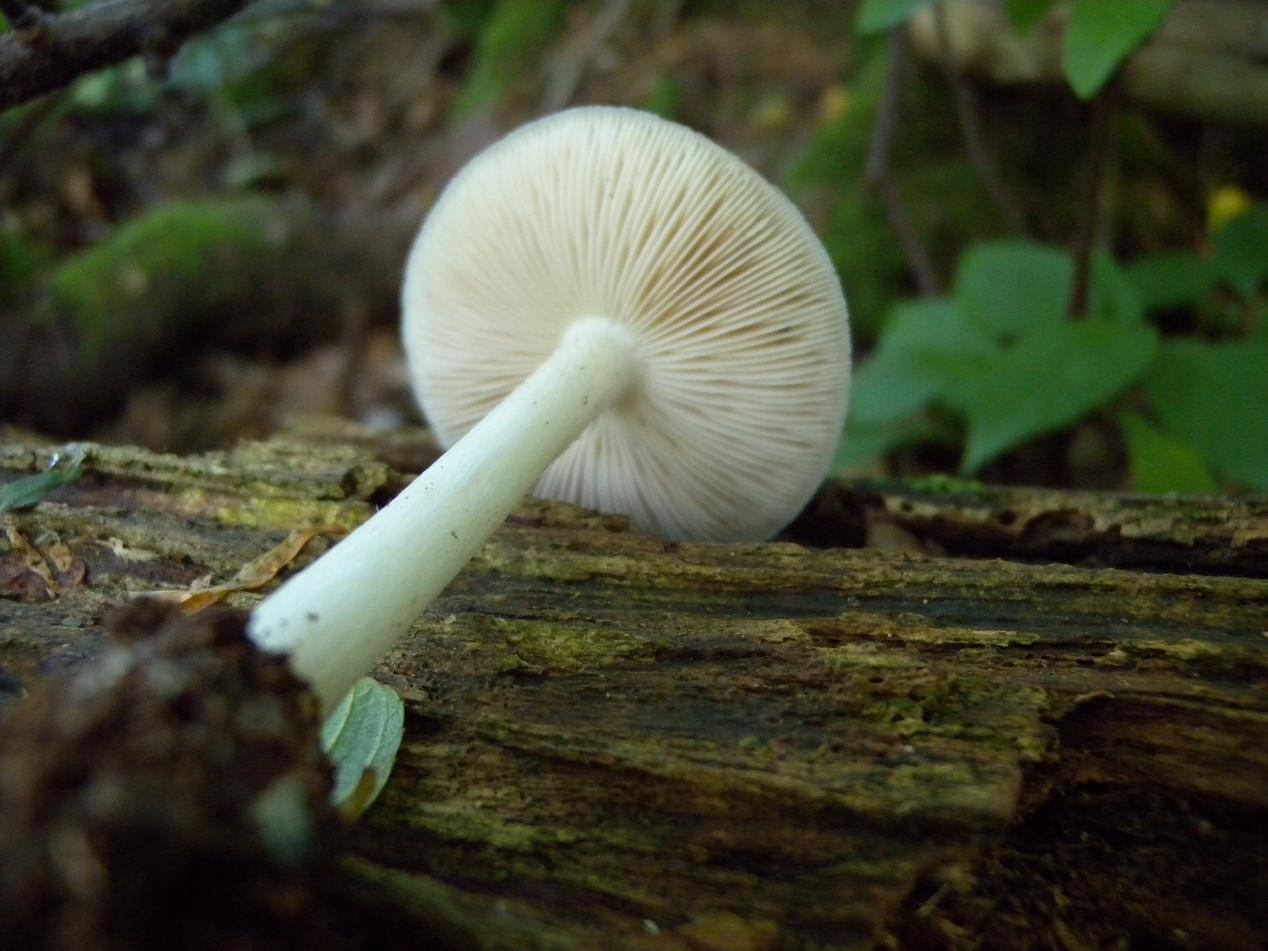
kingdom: Fungi
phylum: Basidiomycota
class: Agaricomycetes
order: Agaricales
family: Pluteaceae
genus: Pluteus
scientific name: Pluteus cervinus
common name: sodfarvet skærmhat
